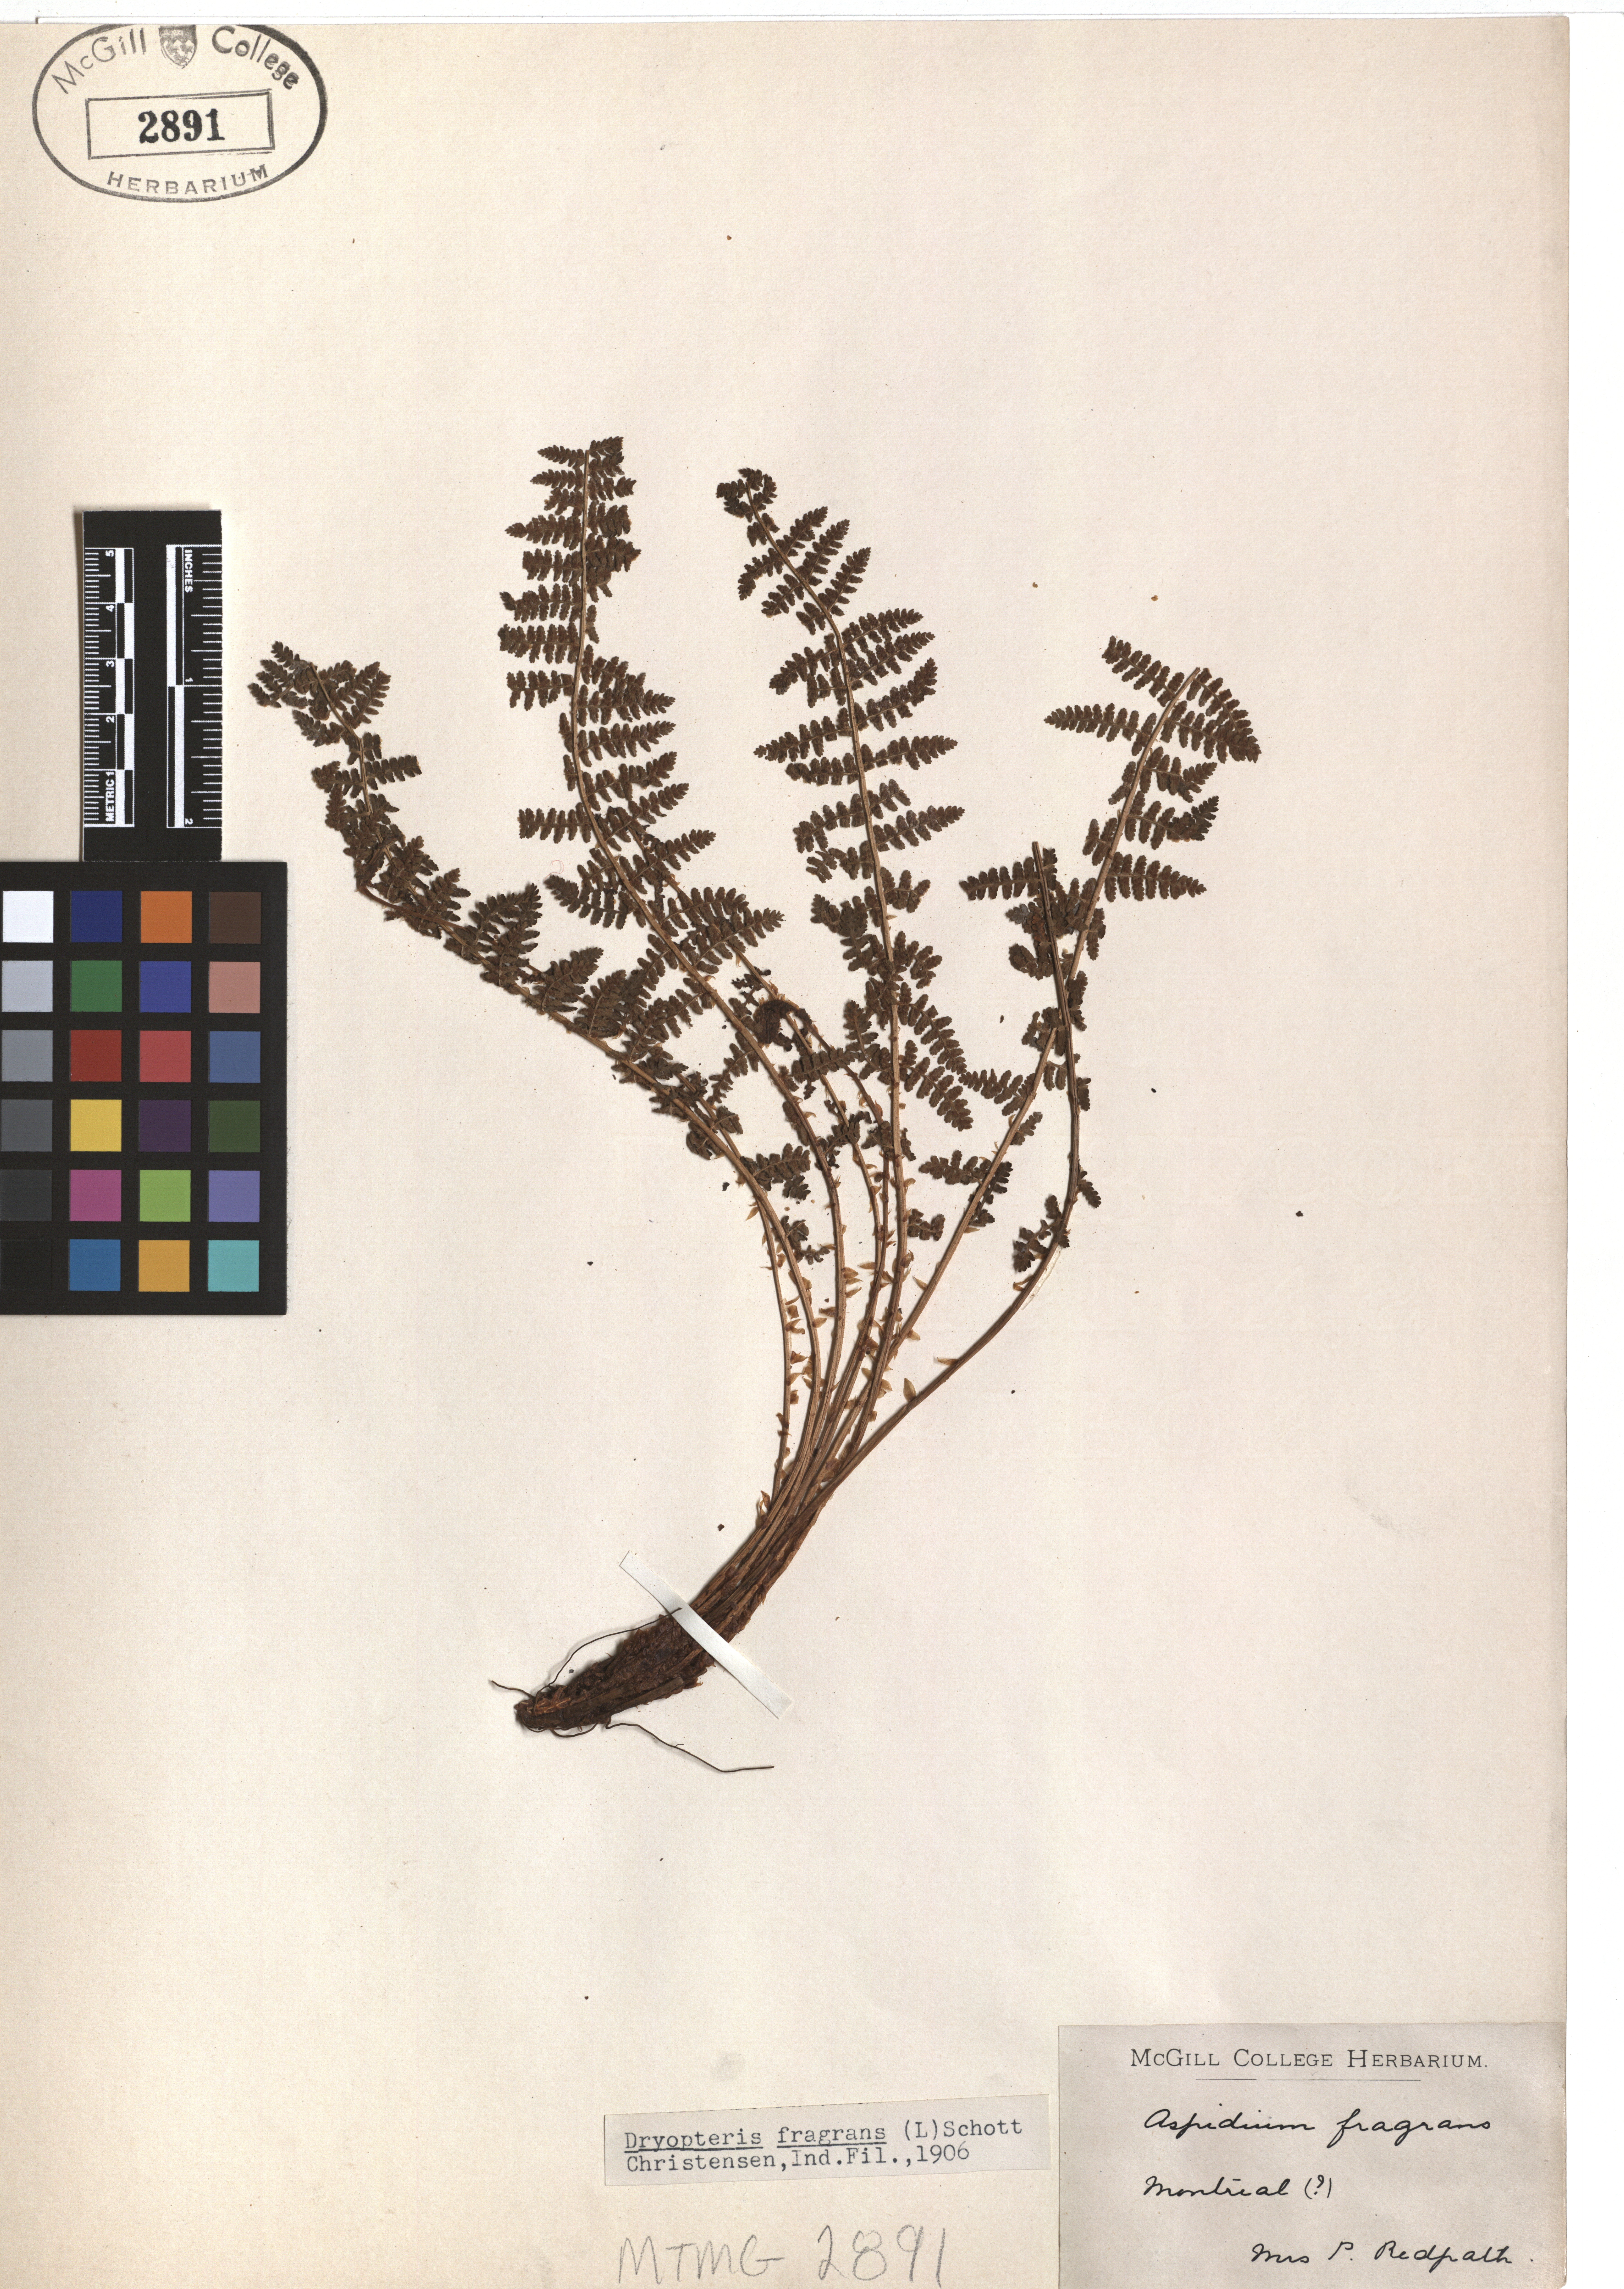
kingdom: Plantae
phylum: Tracheophyta
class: Polypodiopsida
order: Polypodiales
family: Dryopteridaceae
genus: Dryopteris
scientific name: Dryopteris fragrans
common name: Fragrant wood fern
